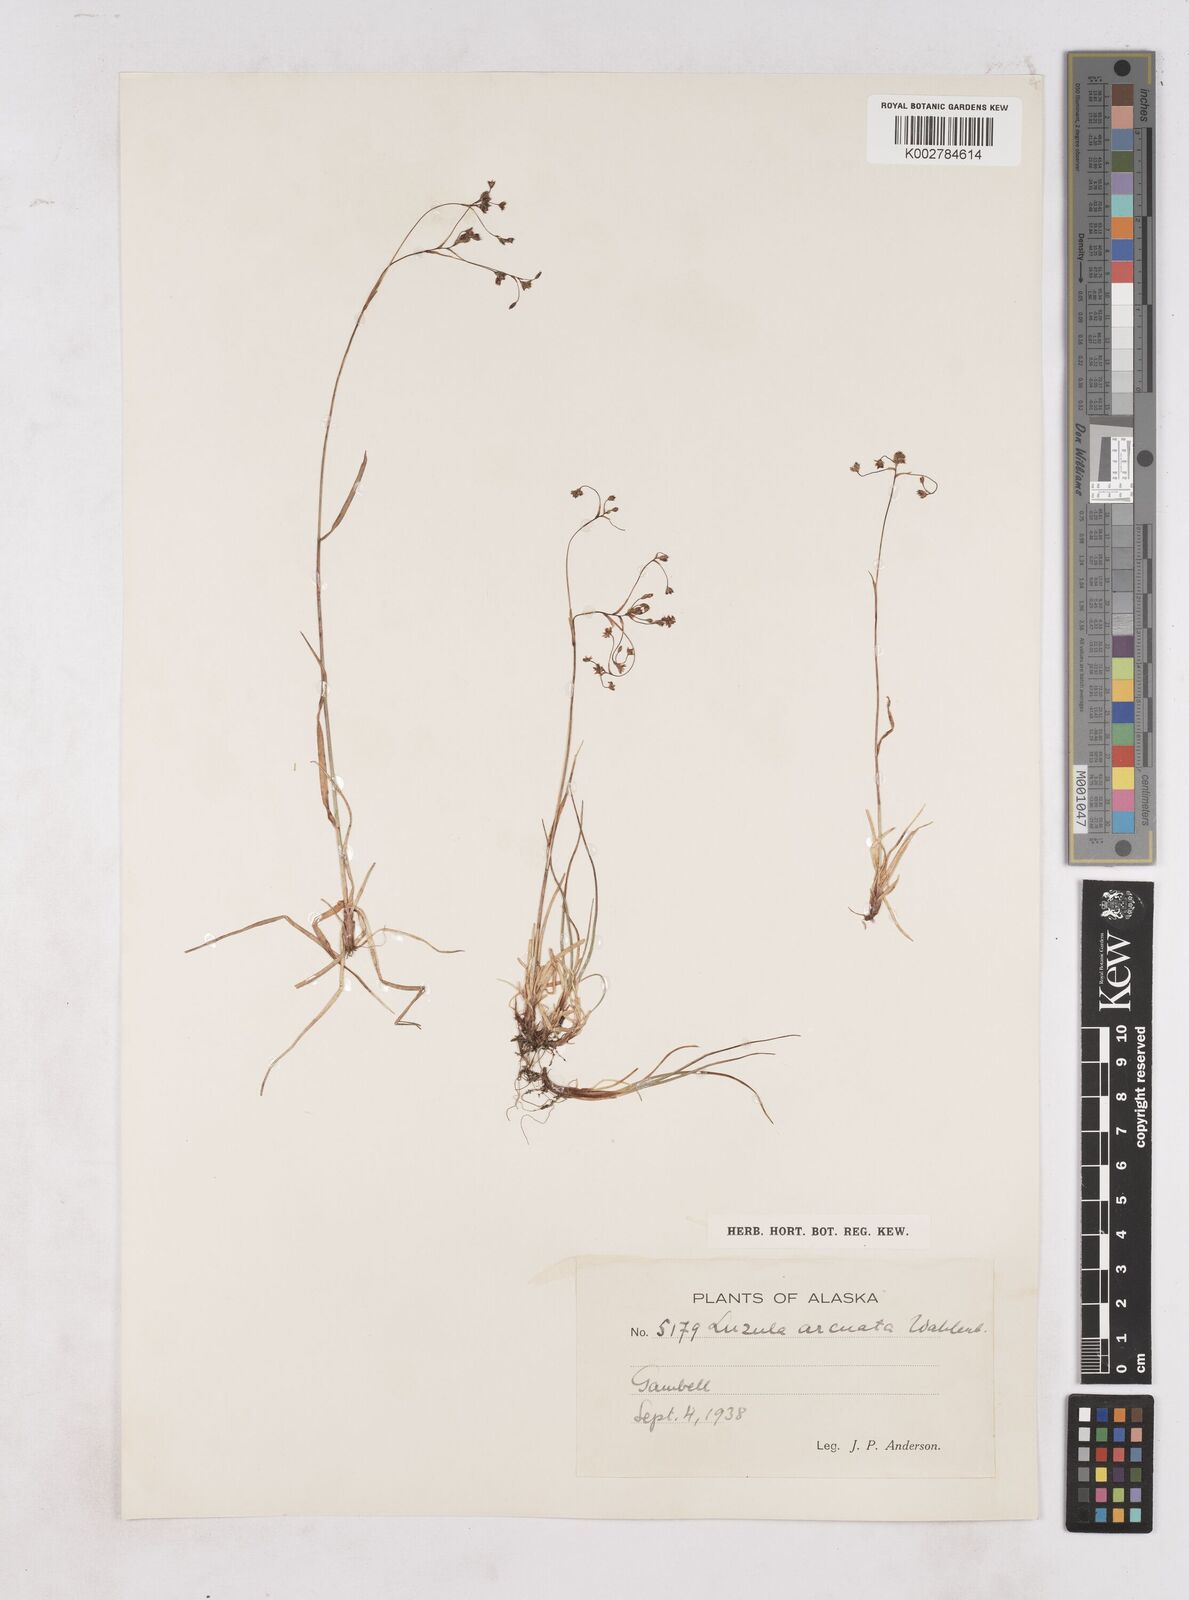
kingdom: Plantae
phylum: Tracheophyta
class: Liliopsida
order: Poales
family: Juncaceae
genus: Luzula
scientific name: Luzula arcuata
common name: Curved wood-rush
